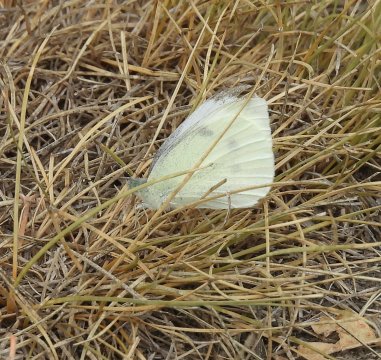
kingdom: Animalia
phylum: Arthropoda
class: Insecta
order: Lepidoptera
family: Pieridae
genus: Pieris
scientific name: Pieris rapae
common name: Cabbage White
